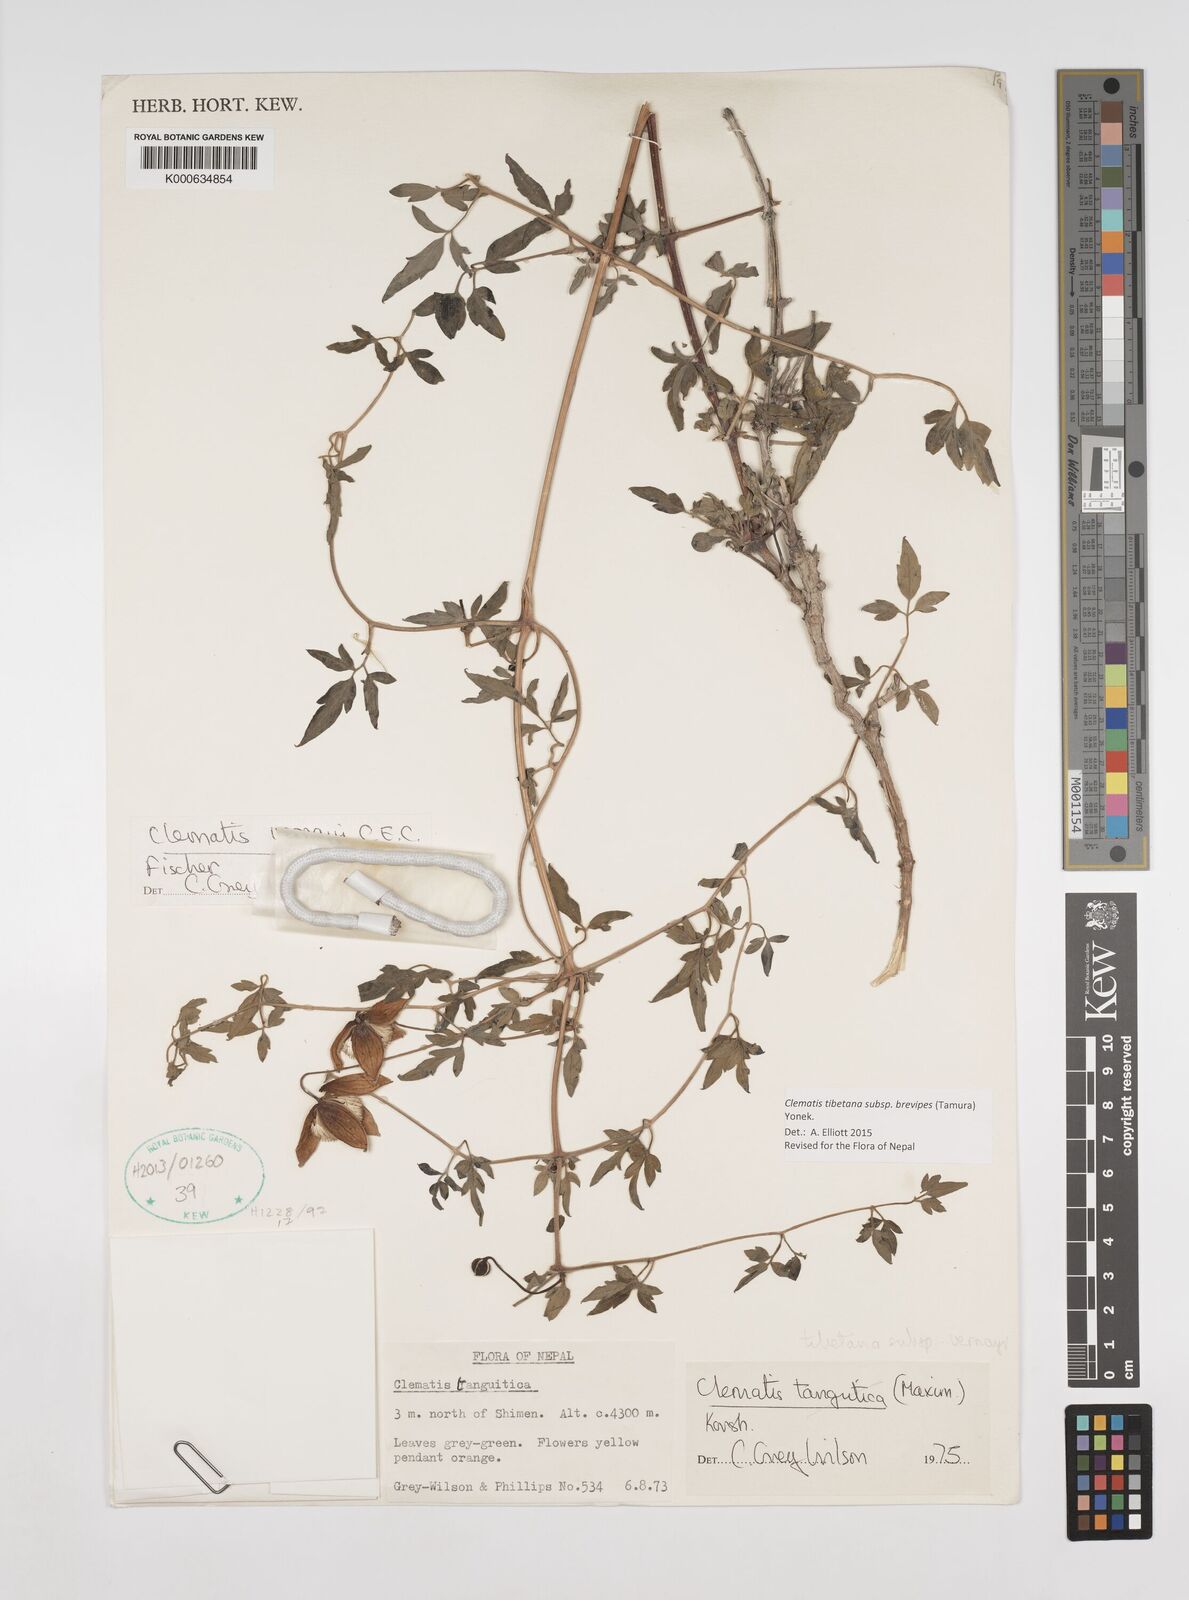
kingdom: Plantae
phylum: Tracheophyta
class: Magnoliopsida
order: Ranunculales
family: Ranunculaceae
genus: Clematis
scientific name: Clematis tibetana
